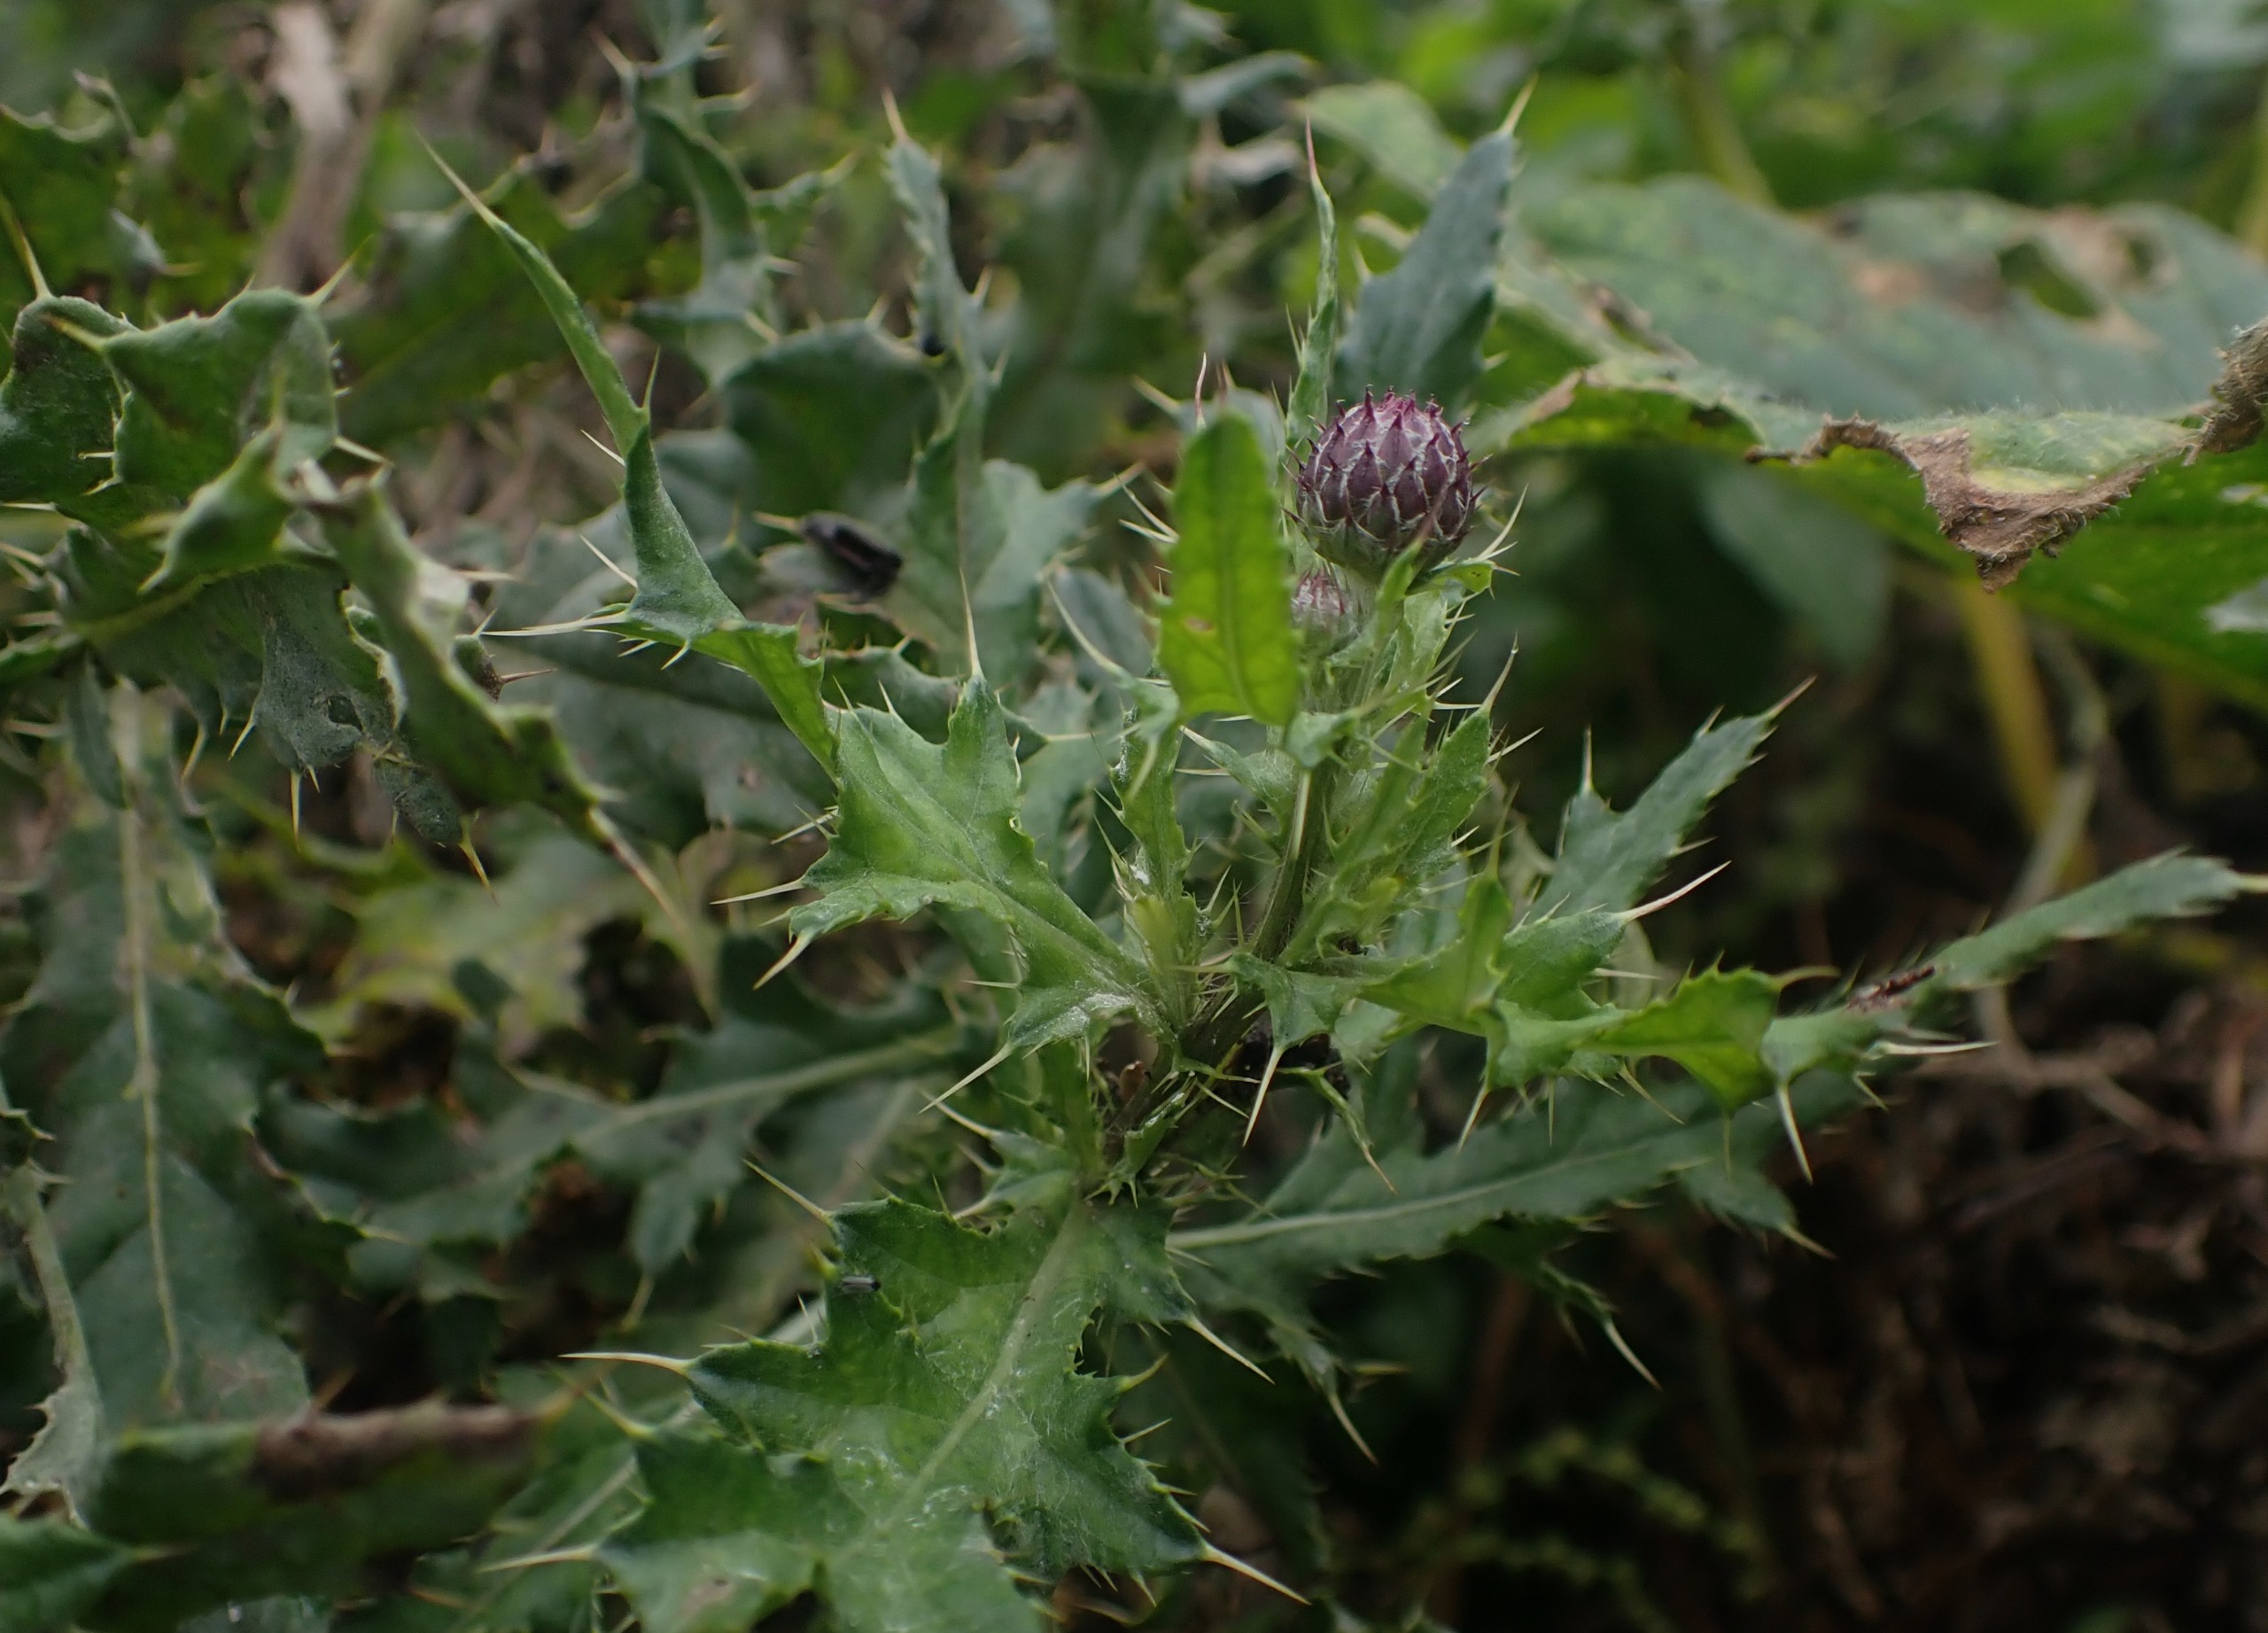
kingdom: Plantae
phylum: Tracheophyta
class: Magnoliopsida
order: Asterales
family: Asteraceae
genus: Cirsium
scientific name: Cirsium arvense
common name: Ager-tidsel
